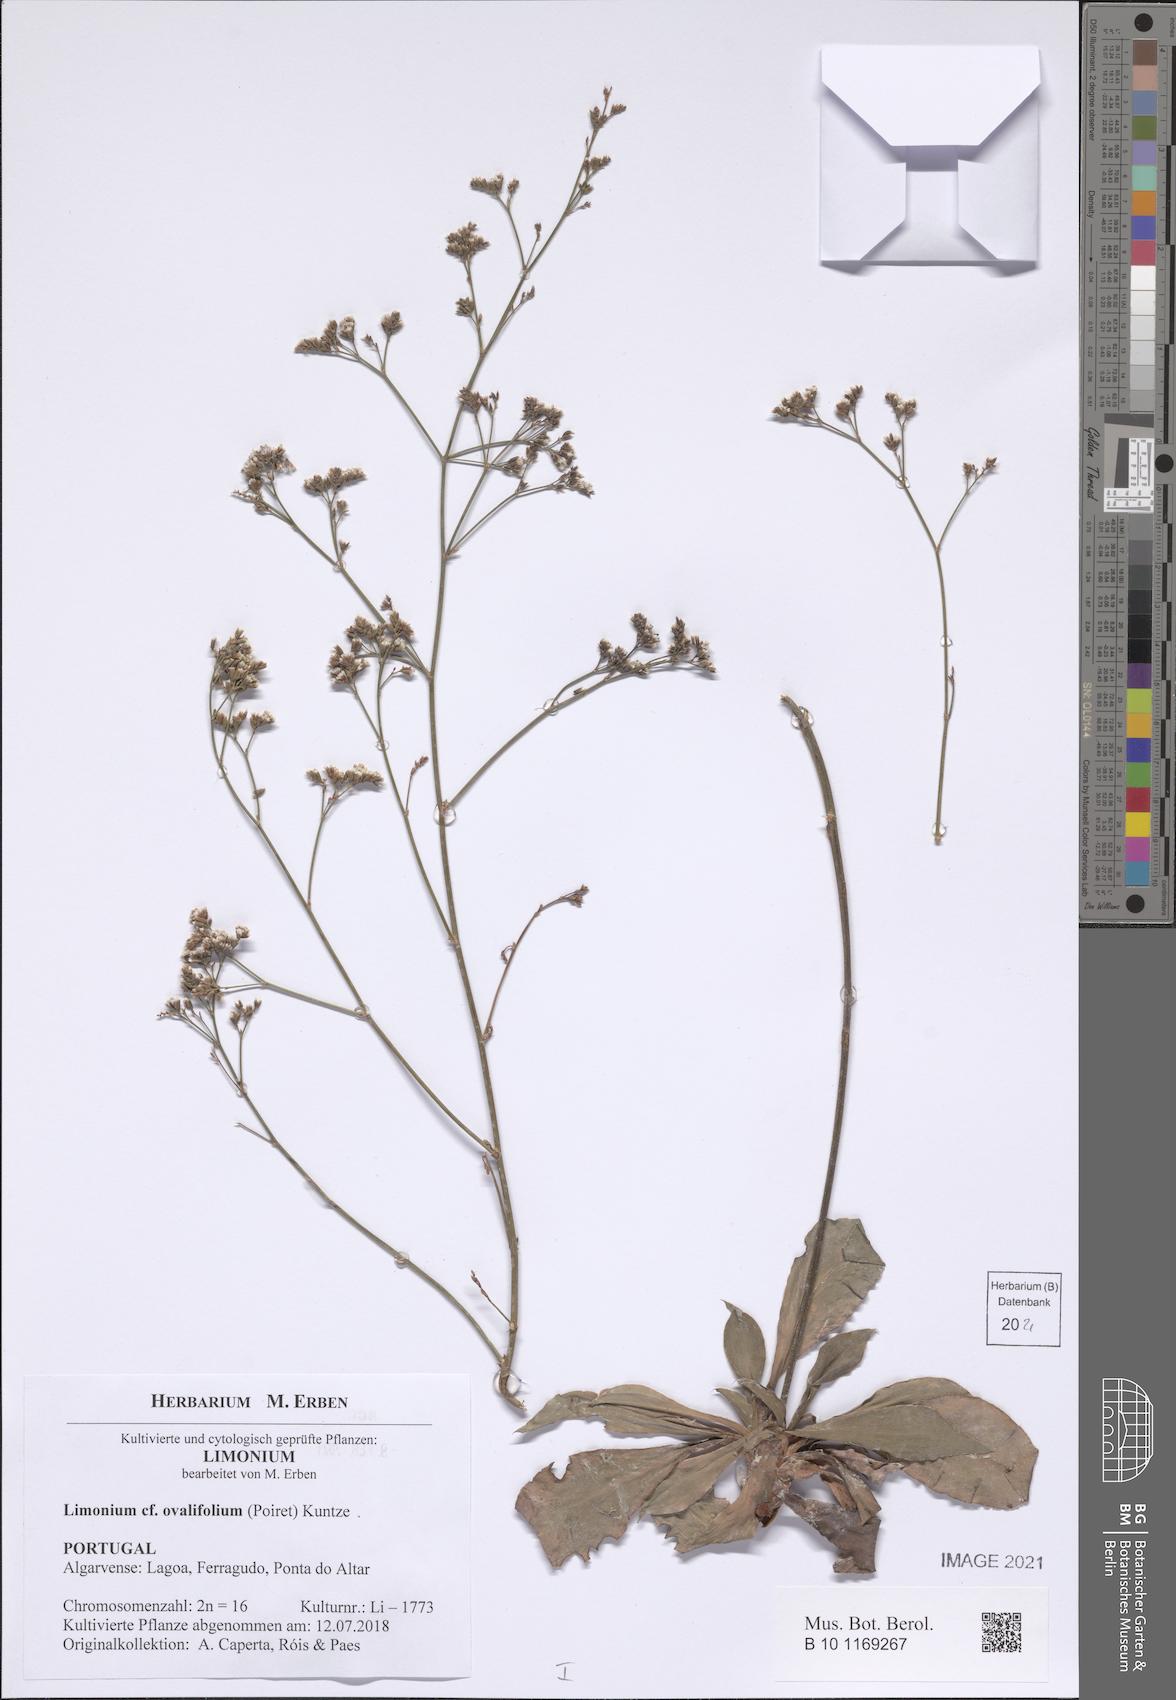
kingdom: Plantae
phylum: Tracheophyta
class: Magnoliopsida
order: Caryophyllales
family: Plumbaginaceae
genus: Limonium
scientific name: Limonium ovalifolium
